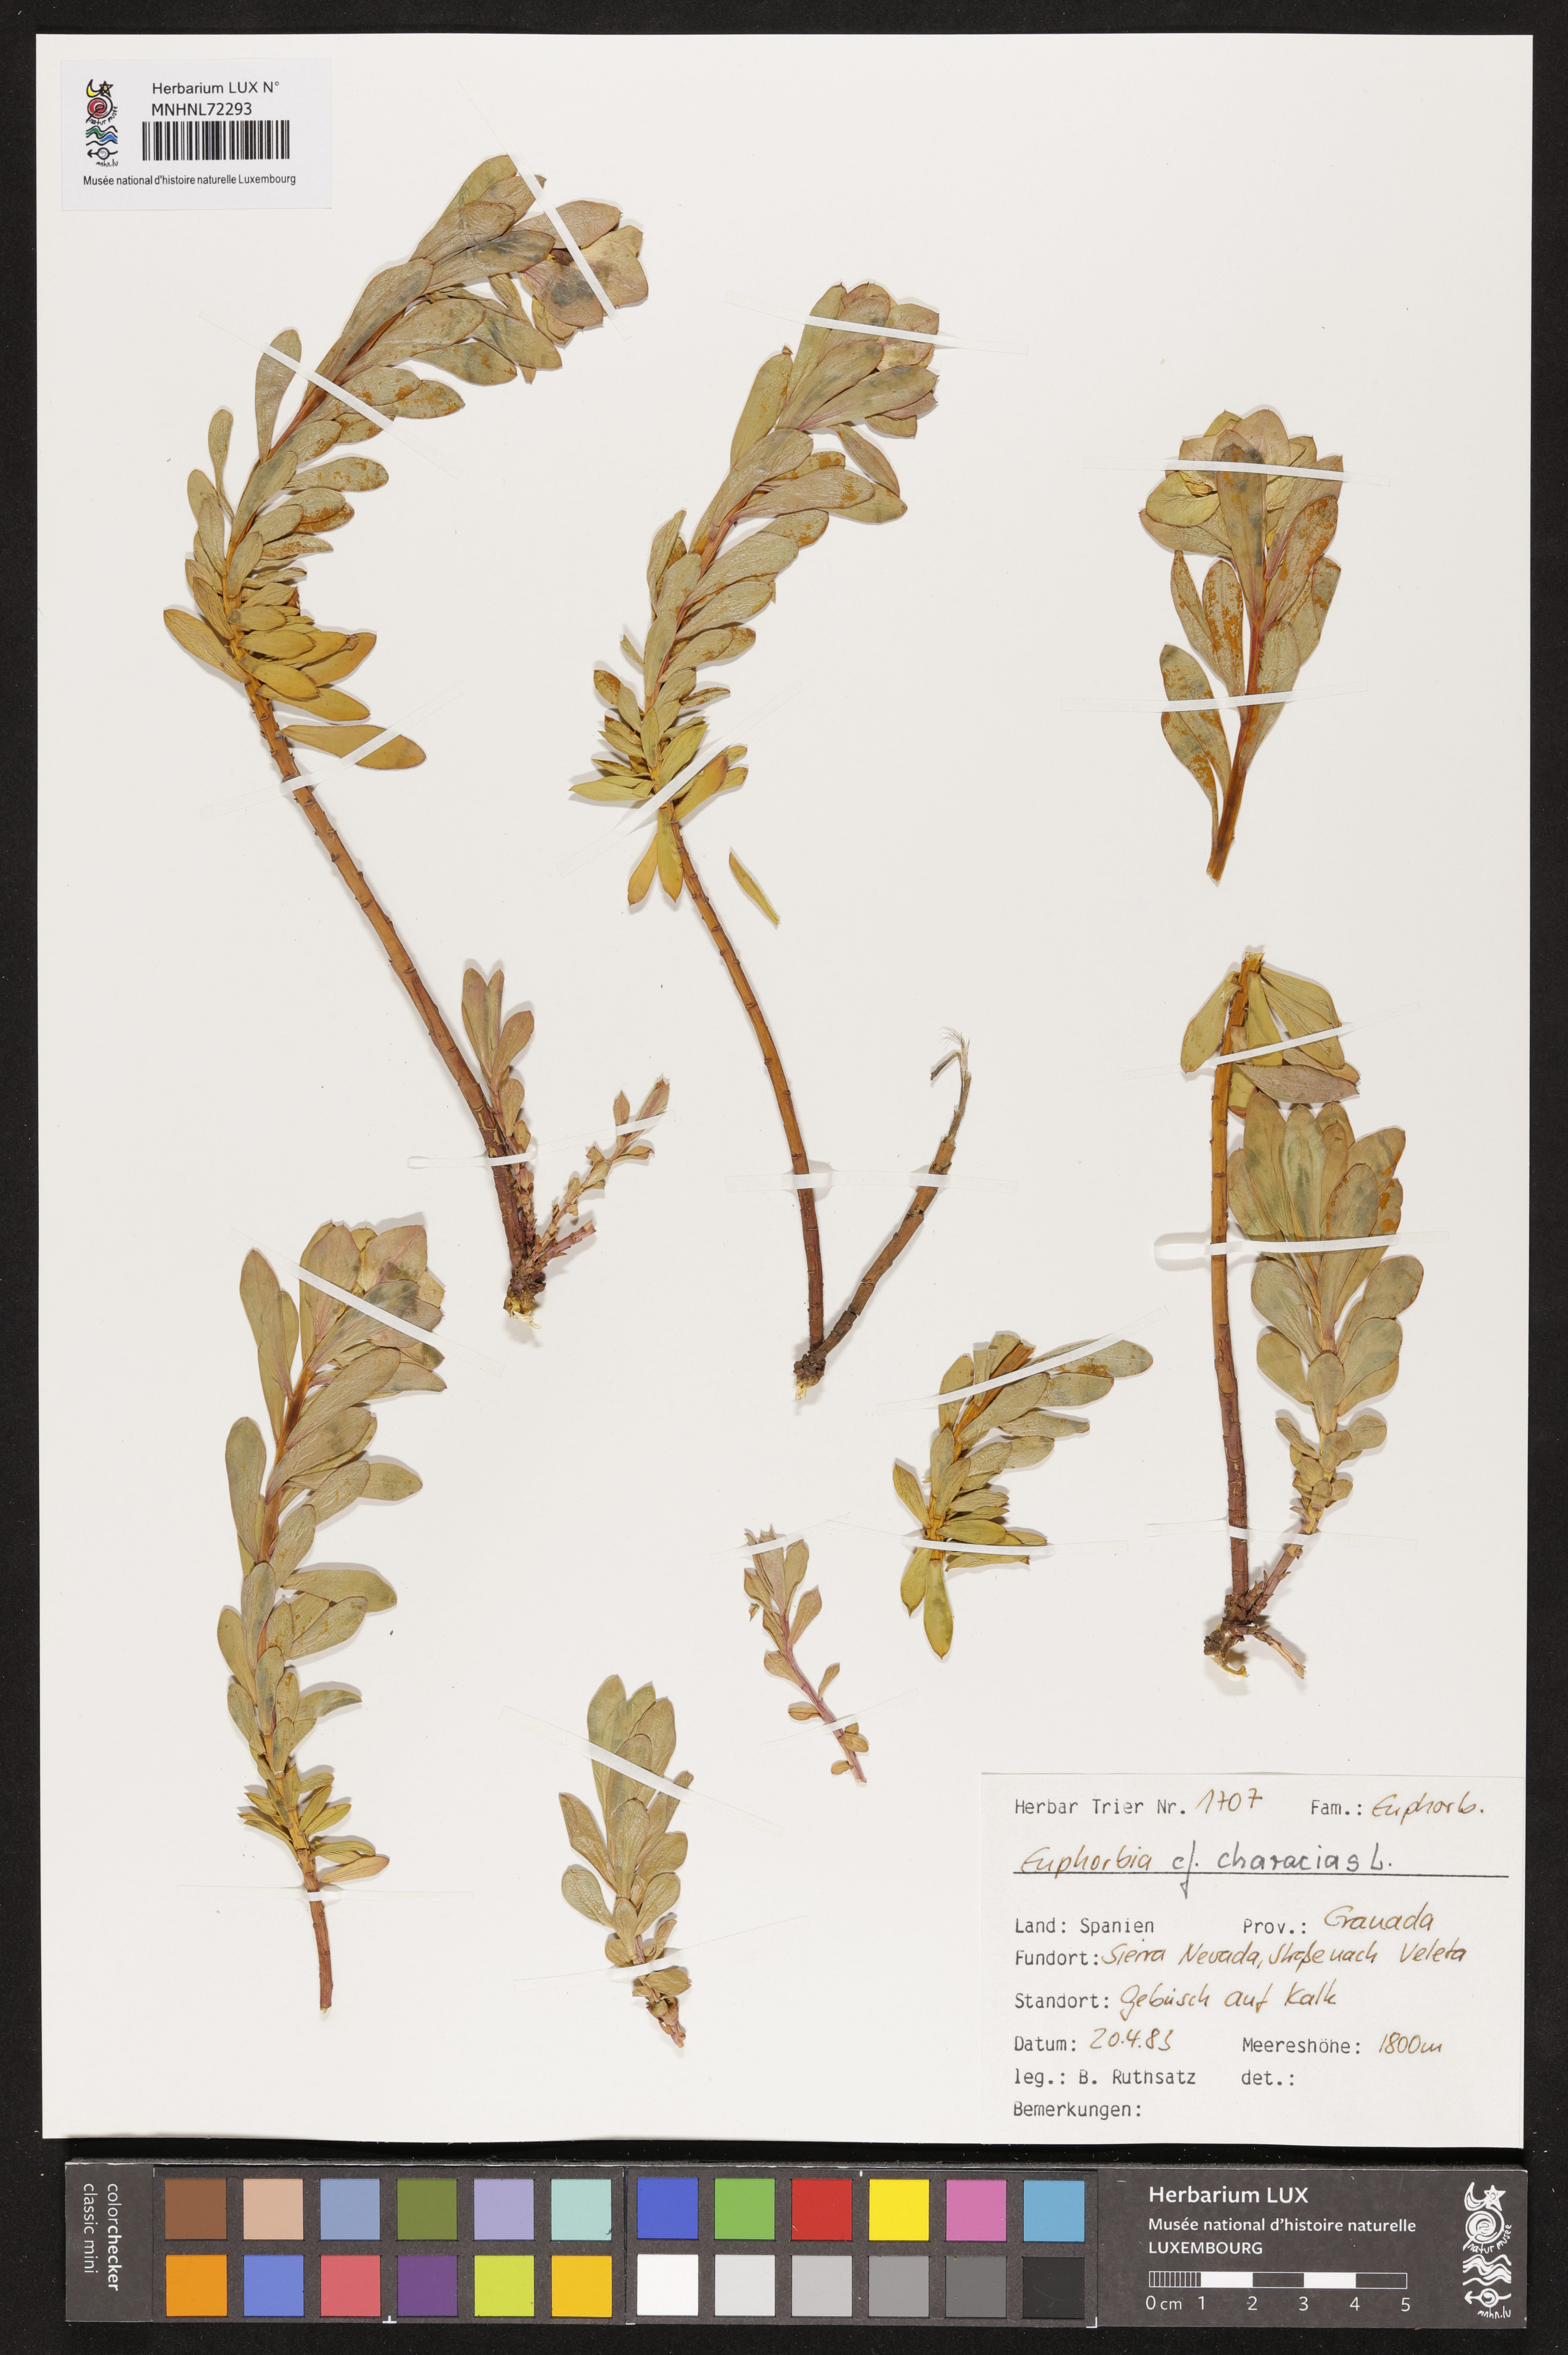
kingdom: Plantae
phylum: Tracheophyta
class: Magnoliopsida
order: Malpighiales
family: Euphorbiaceae
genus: Euphorbia
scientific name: Euphorbia characias
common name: Mediterranean spurge
